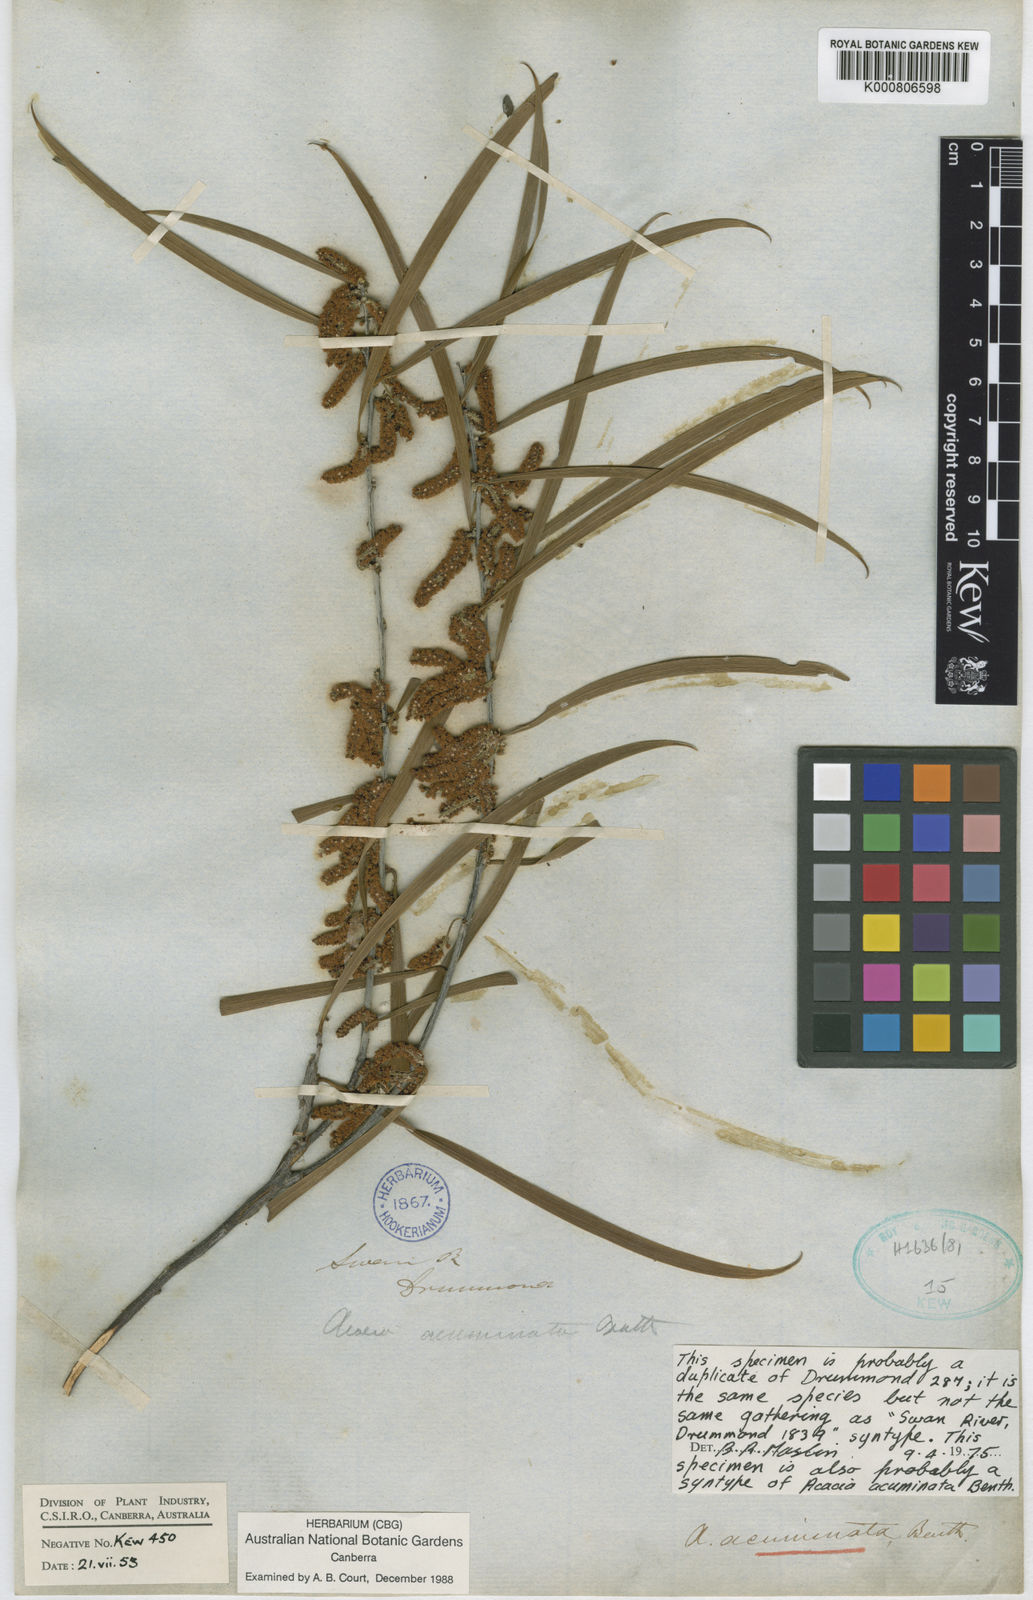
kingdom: Plantae
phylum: Tracheophyta
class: Magnoliopsida
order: Fabales
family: Fabaceae
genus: Acacia
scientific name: Acacia acuminata
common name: Jam wattle
